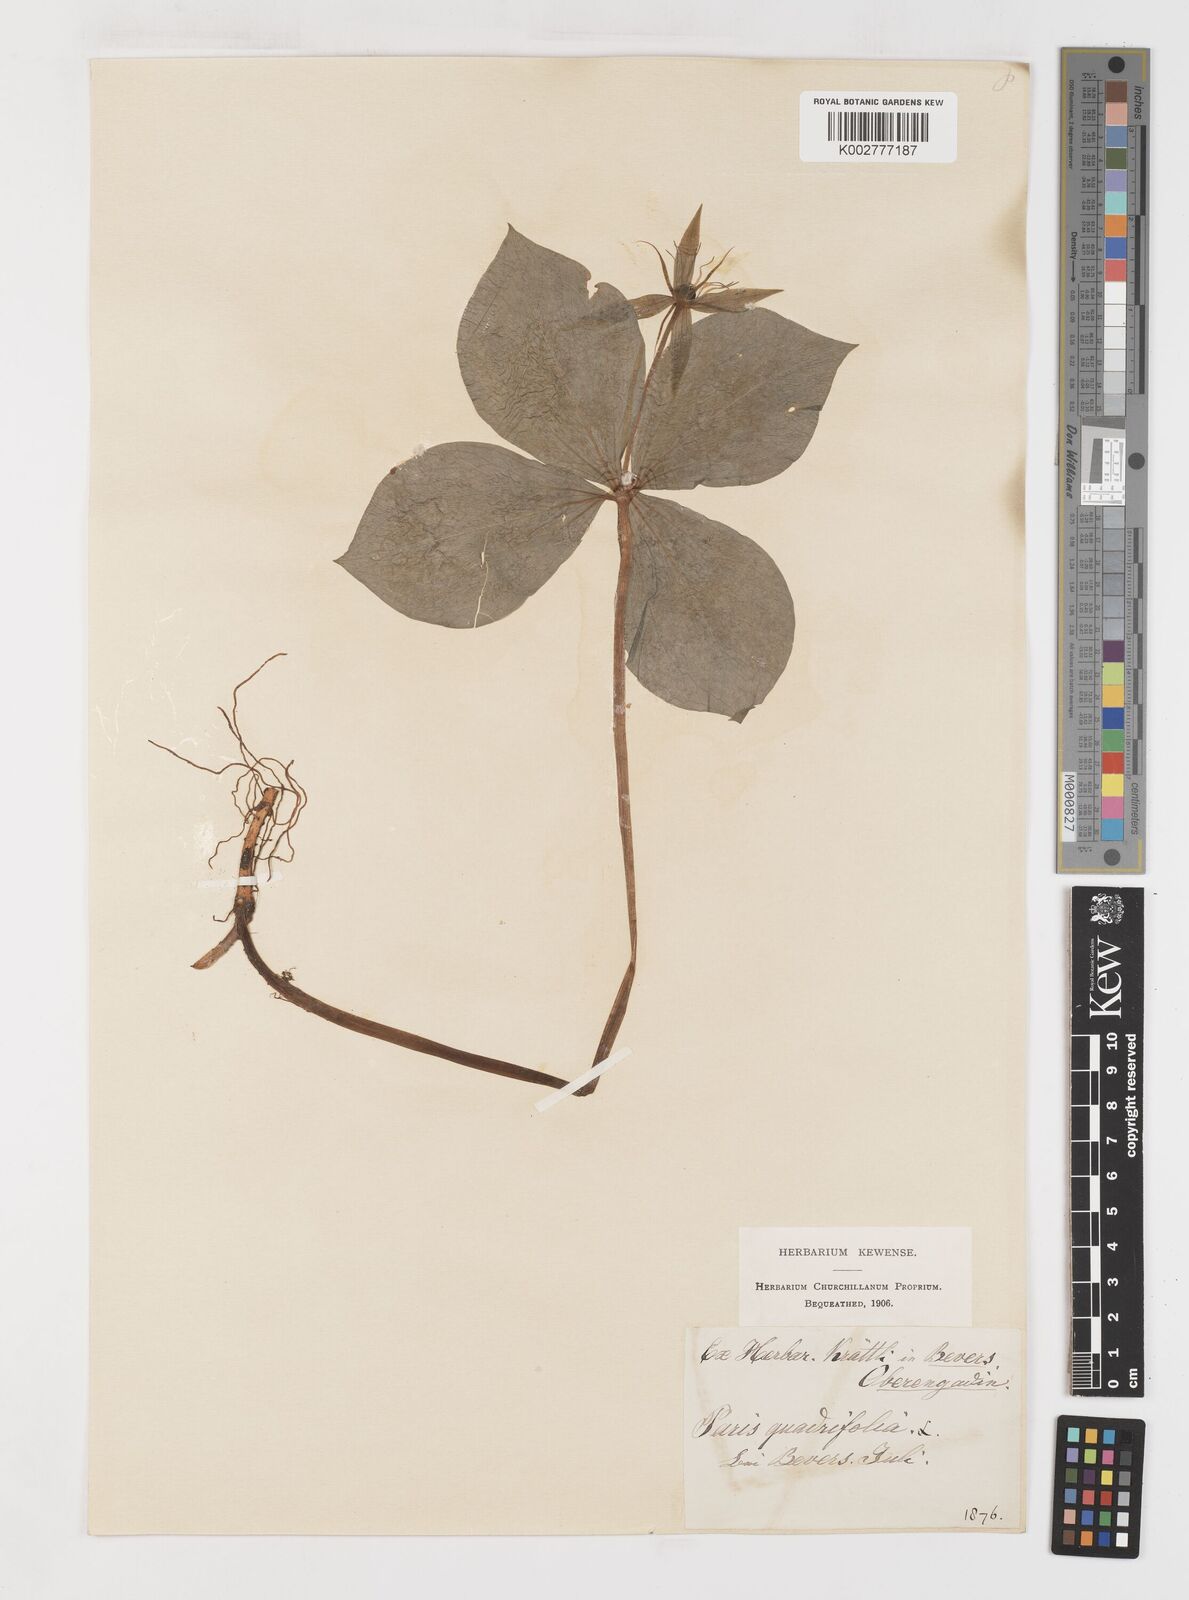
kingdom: Plantae
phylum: Tracheophyta
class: Liliopsida
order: Liliales
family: Melanthiaceae
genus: Paris
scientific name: Paris quadrifolia
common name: Herb-paris
